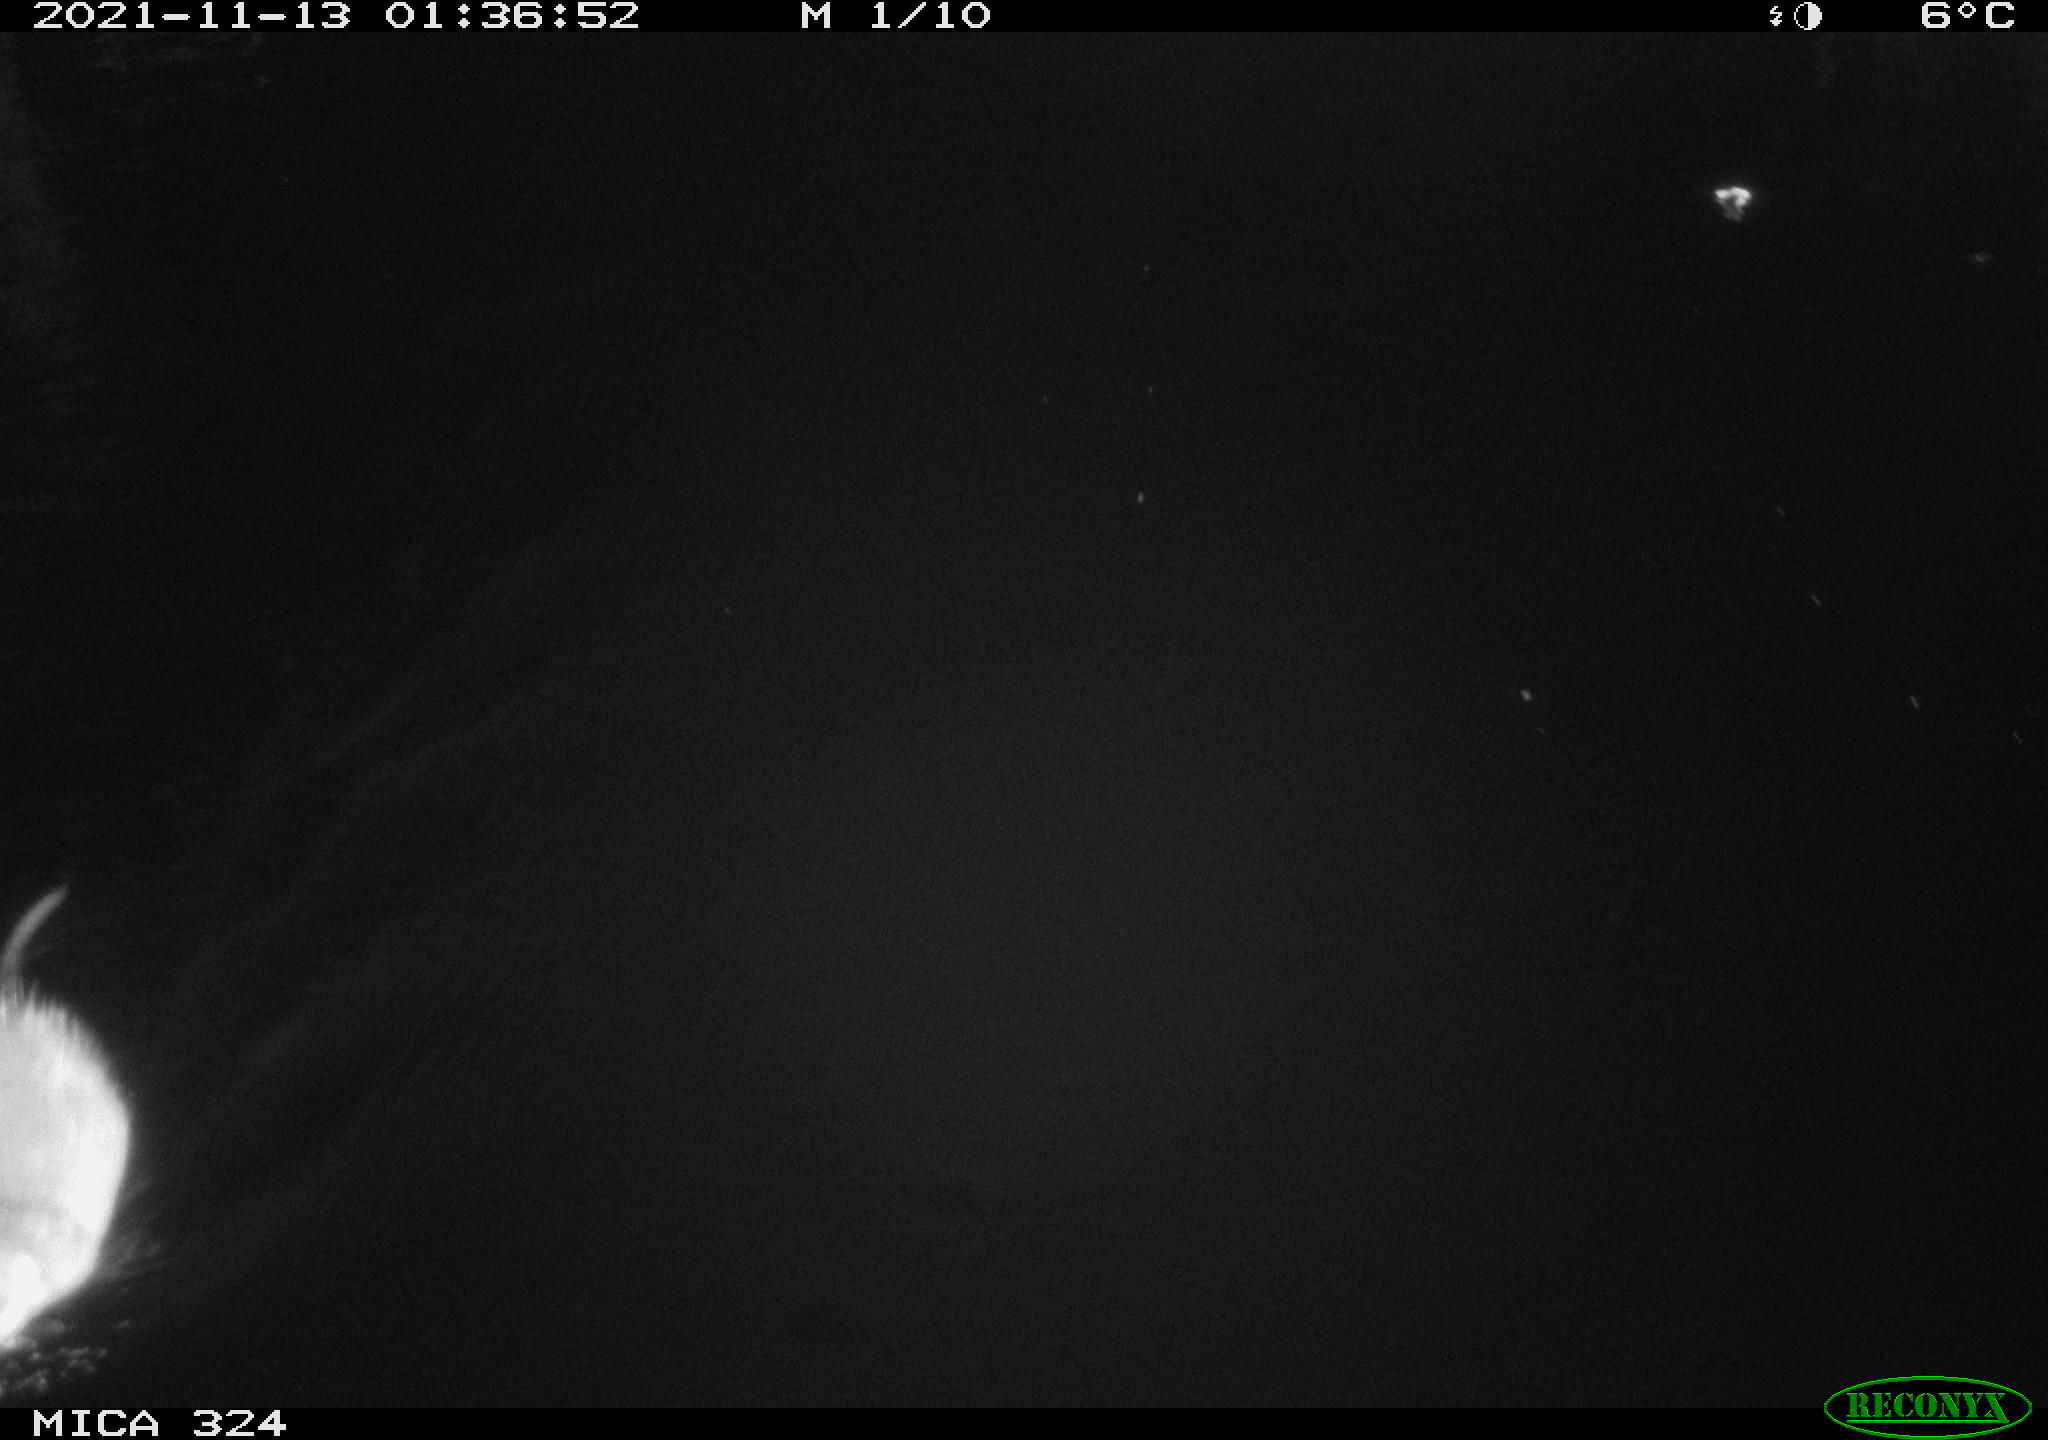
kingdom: Animalia
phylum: Chordata
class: Mammalia
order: Rodentia
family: Cricetidae
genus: Ondatra
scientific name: Ondatra zibethicus
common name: Muskrat
